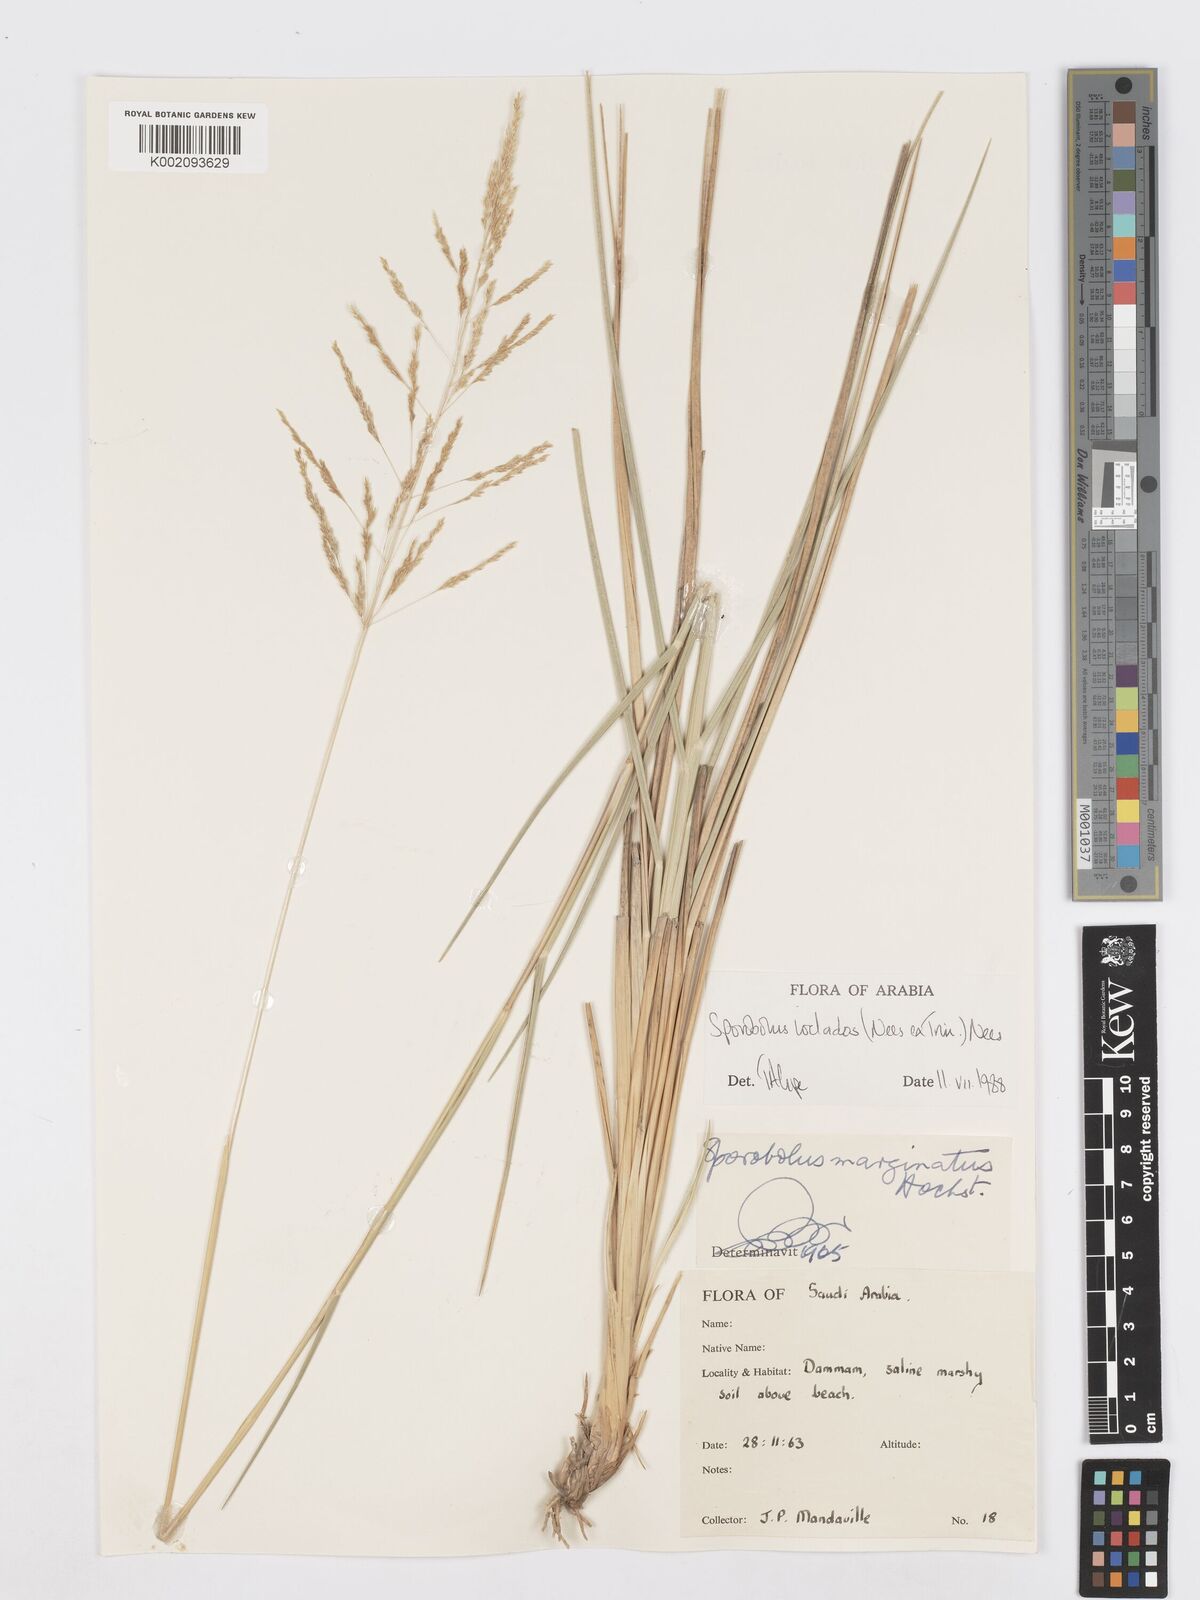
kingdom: Plantae
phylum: Tracheophyta
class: Liliopsida
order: Poales
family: Poaceae
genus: Sporobolus
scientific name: Sporobolus ioclados
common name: Pan dropseed
